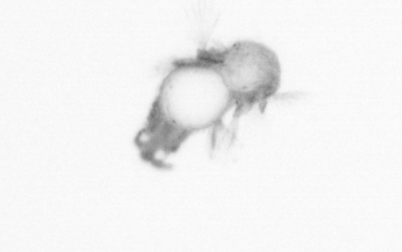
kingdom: Animalia
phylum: Annelida
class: Polychaeta
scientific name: Polychaeta
